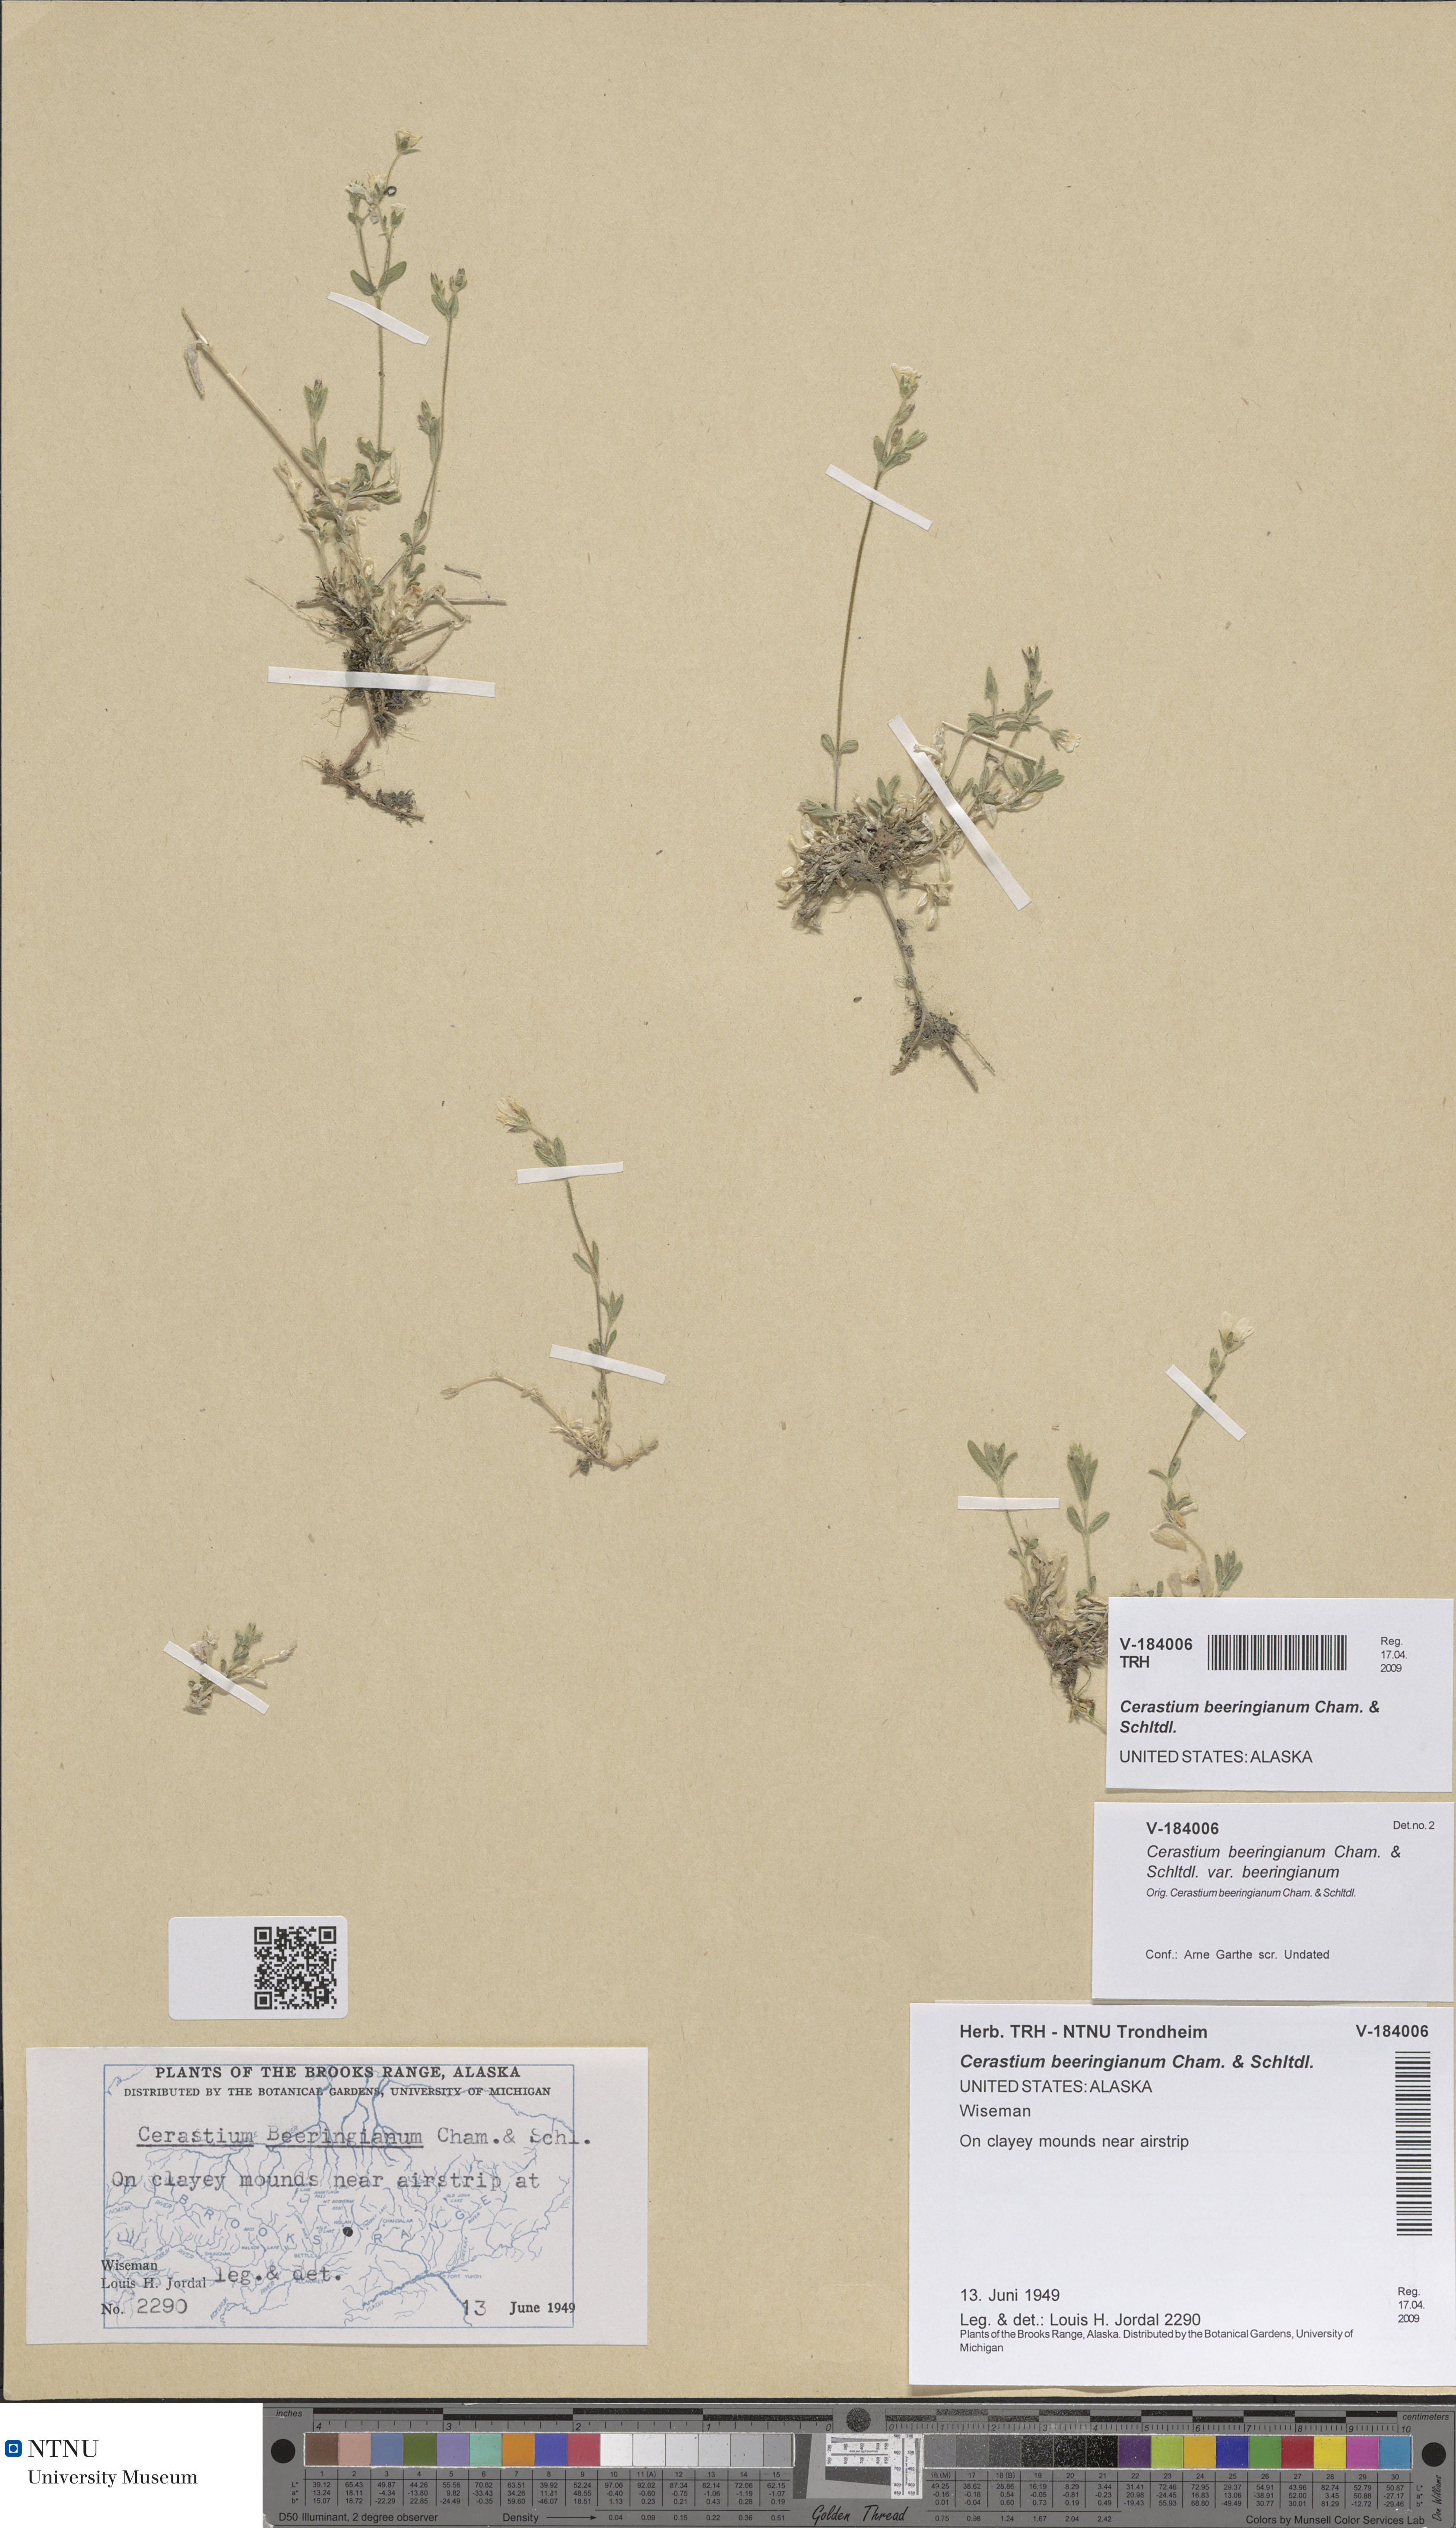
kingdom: Plantae
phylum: Tracheophyta
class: Magnoliopsida
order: Caryophyllales
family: Caryophyllaceae
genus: Cerastium
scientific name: Cerastium beeringianum
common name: Bering mouse-ear chickweed
